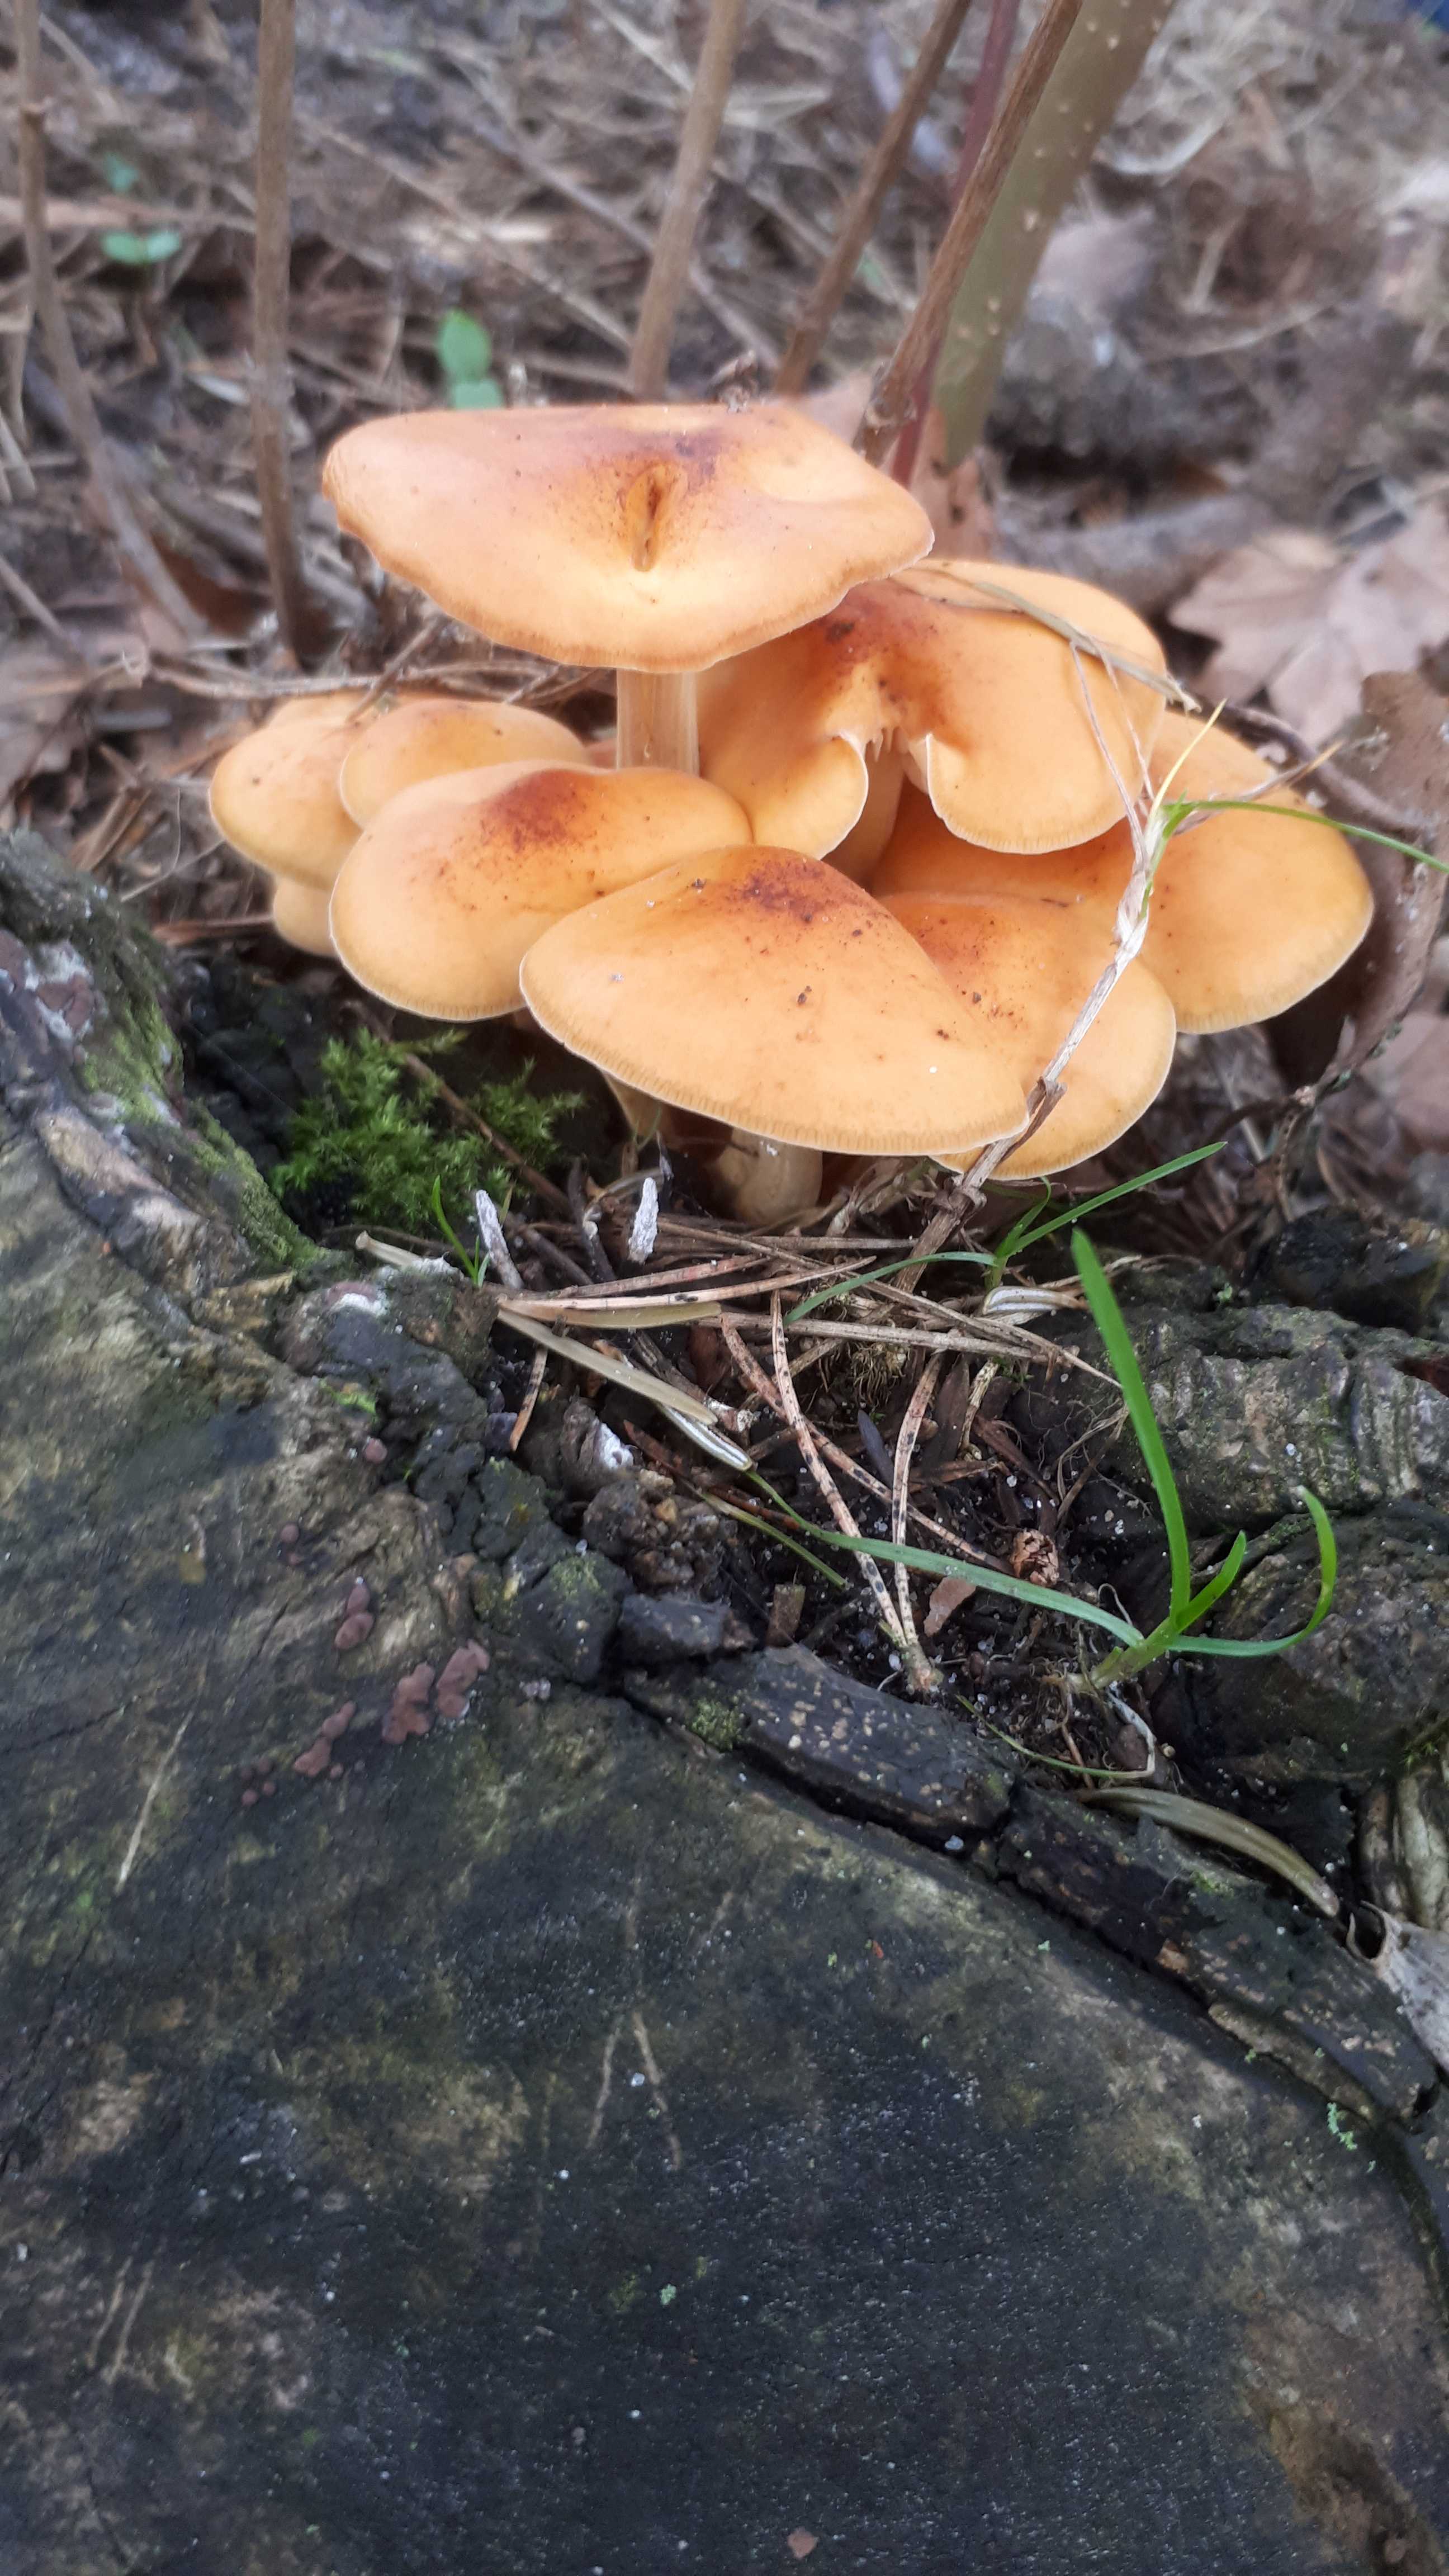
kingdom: Fungi
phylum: Basidiomycota
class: Agaricomycetes
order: Agaricales
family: Physalacriaceae
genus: Flammulina
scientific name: Flammulina velutipes
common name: gul fløjlsfod
